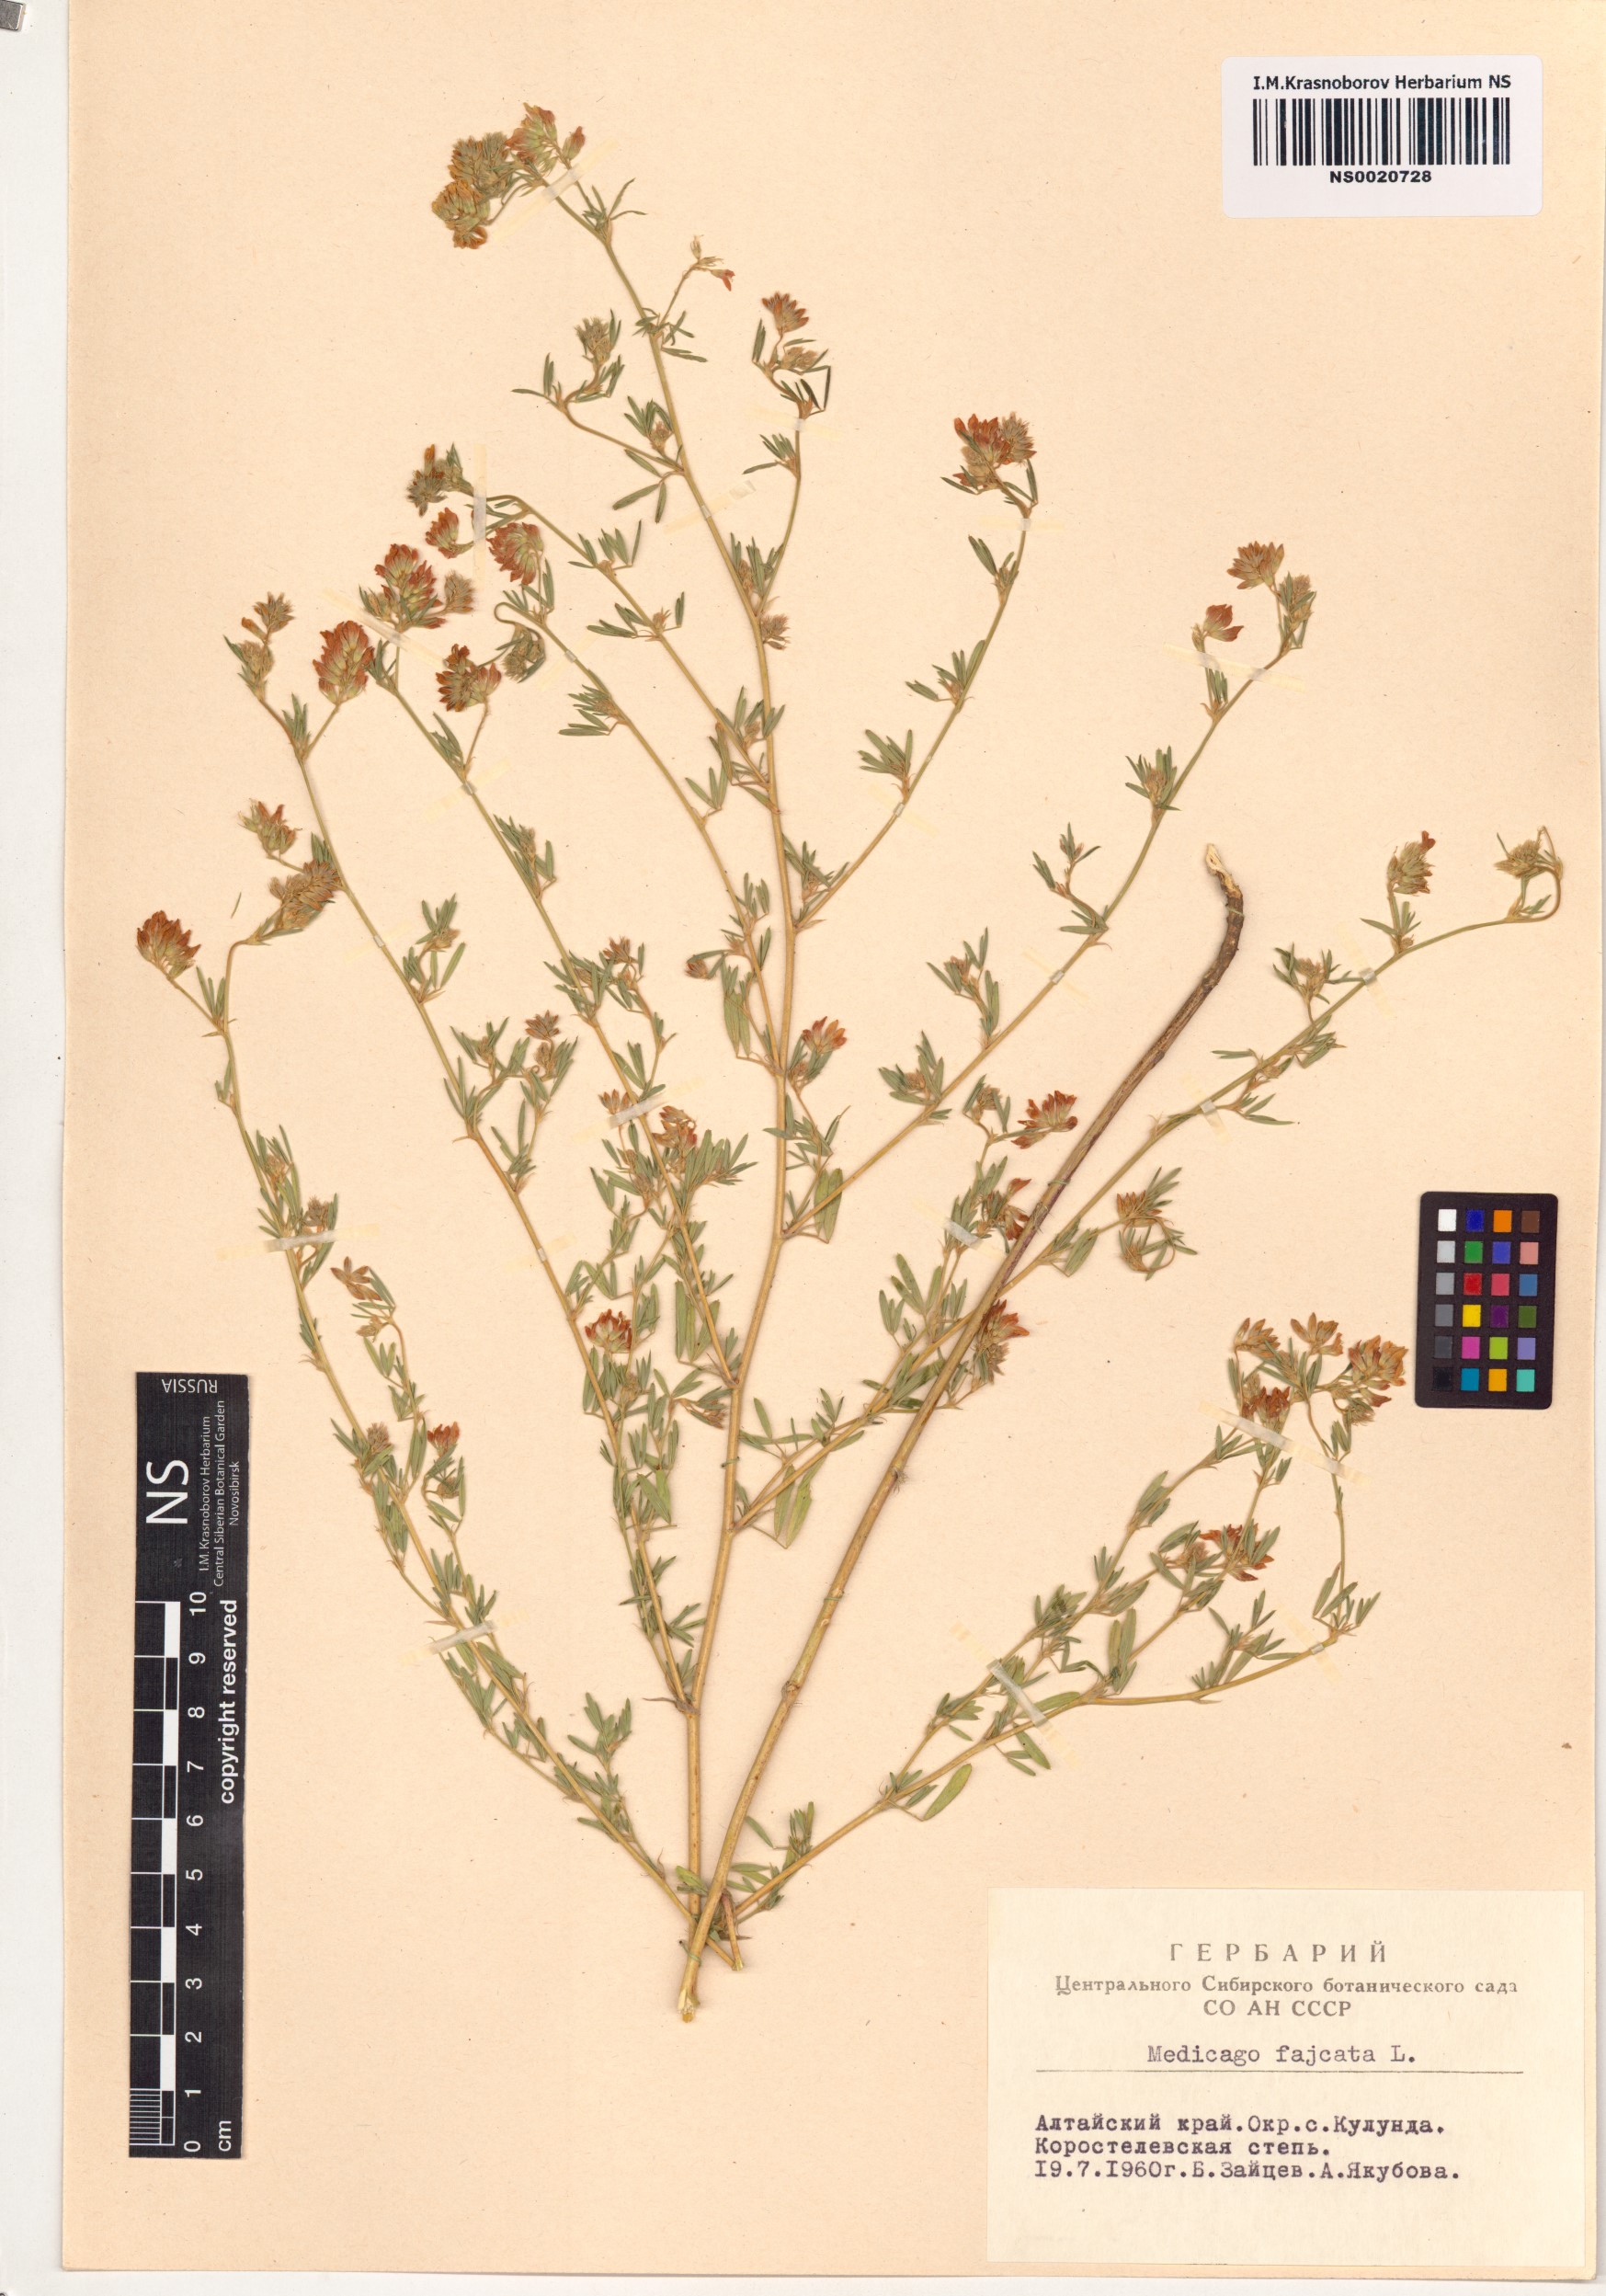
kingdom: Plantae
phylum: Tracheophyta
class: Magnoliopsida
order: Fabales
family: Fabaceae
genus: Medicago
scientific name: Medicago falcata
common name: Sickle medick
